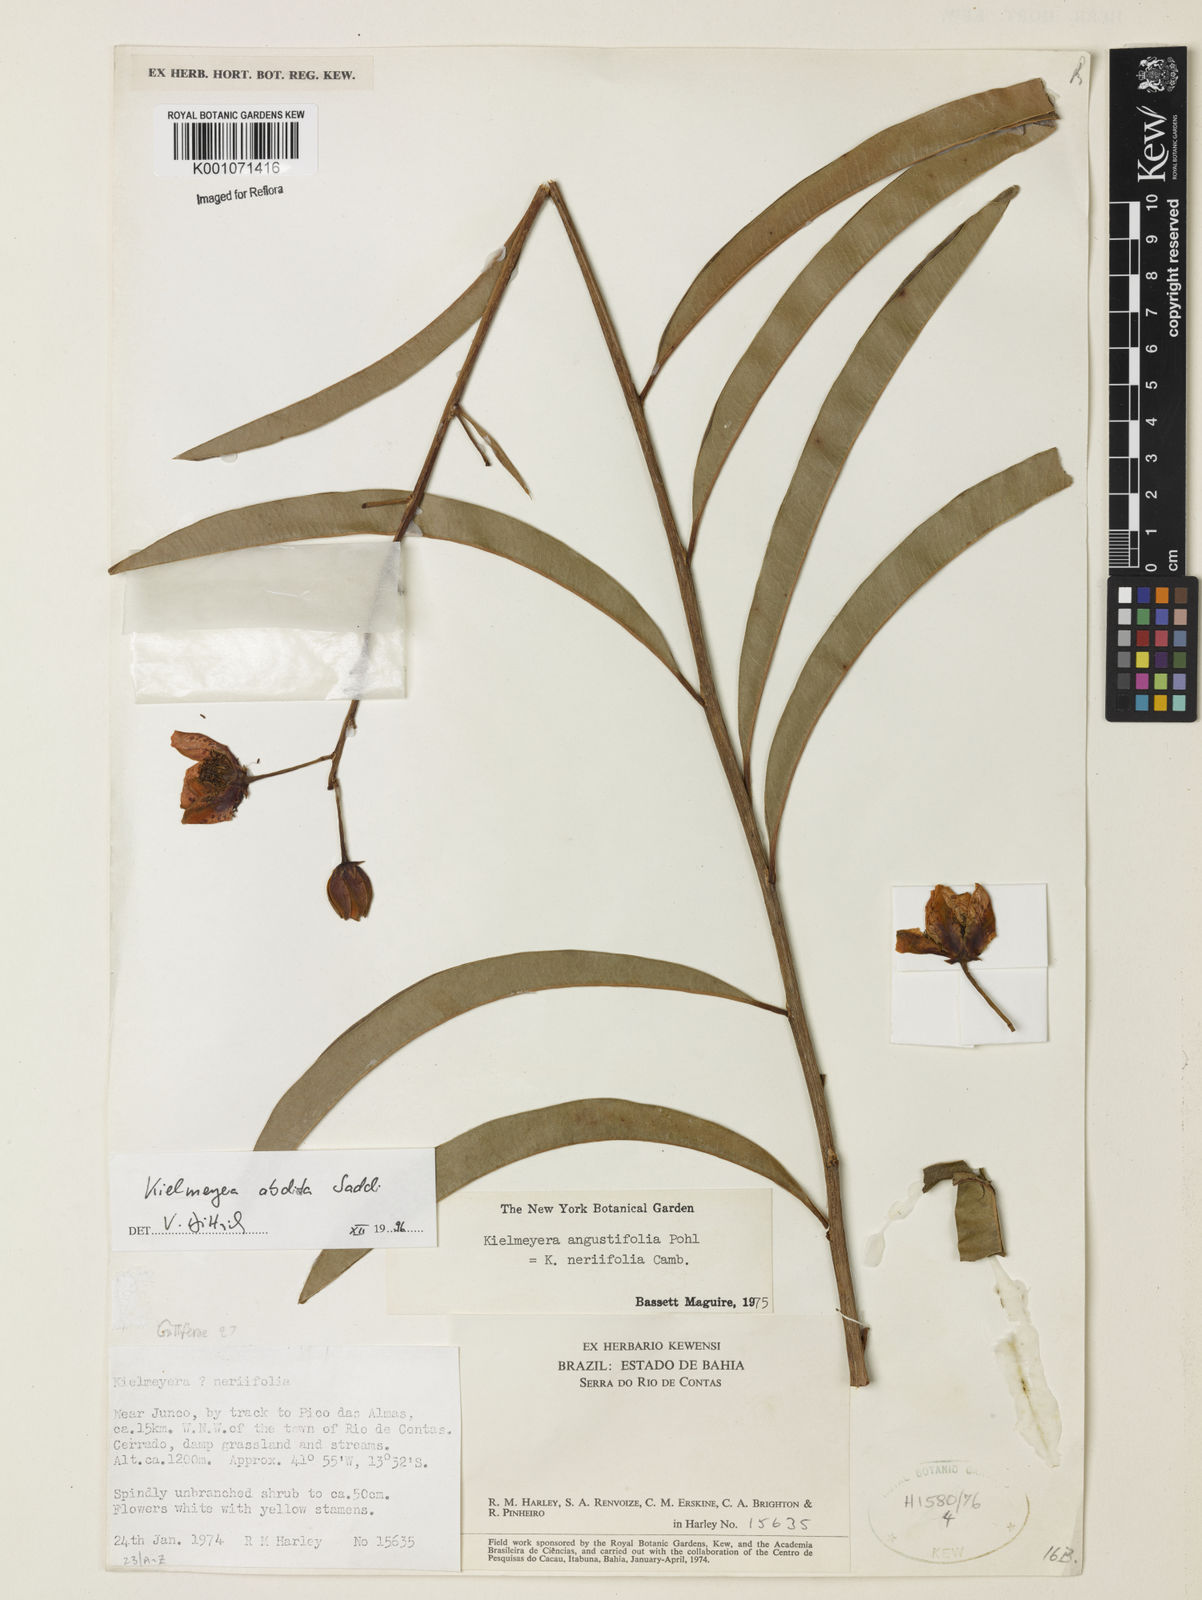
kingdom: Plantae
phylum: Tracheophyta
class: Magnoliopsida
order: Malpighiales
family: Calophyllaceae
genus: Kielmeyera
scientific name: Kielmeyera abdita
